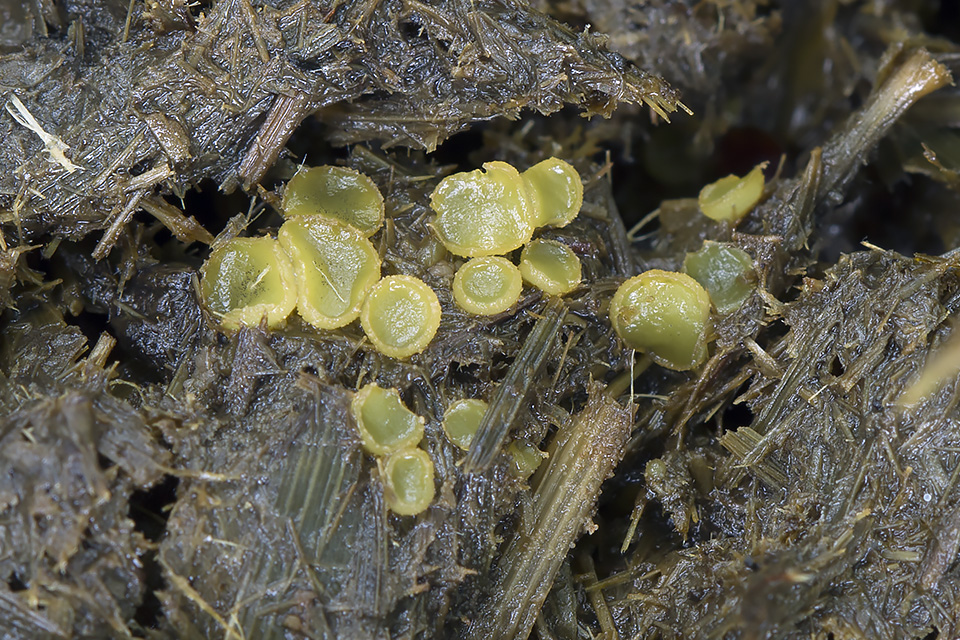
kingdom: Fungi
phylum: Ascomycota
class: Pezizomycetes
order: Pezizales
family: Ascobolaceae
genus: Ascobolus
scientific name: Ascobolus crenulatus
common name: gullig prikbæger
